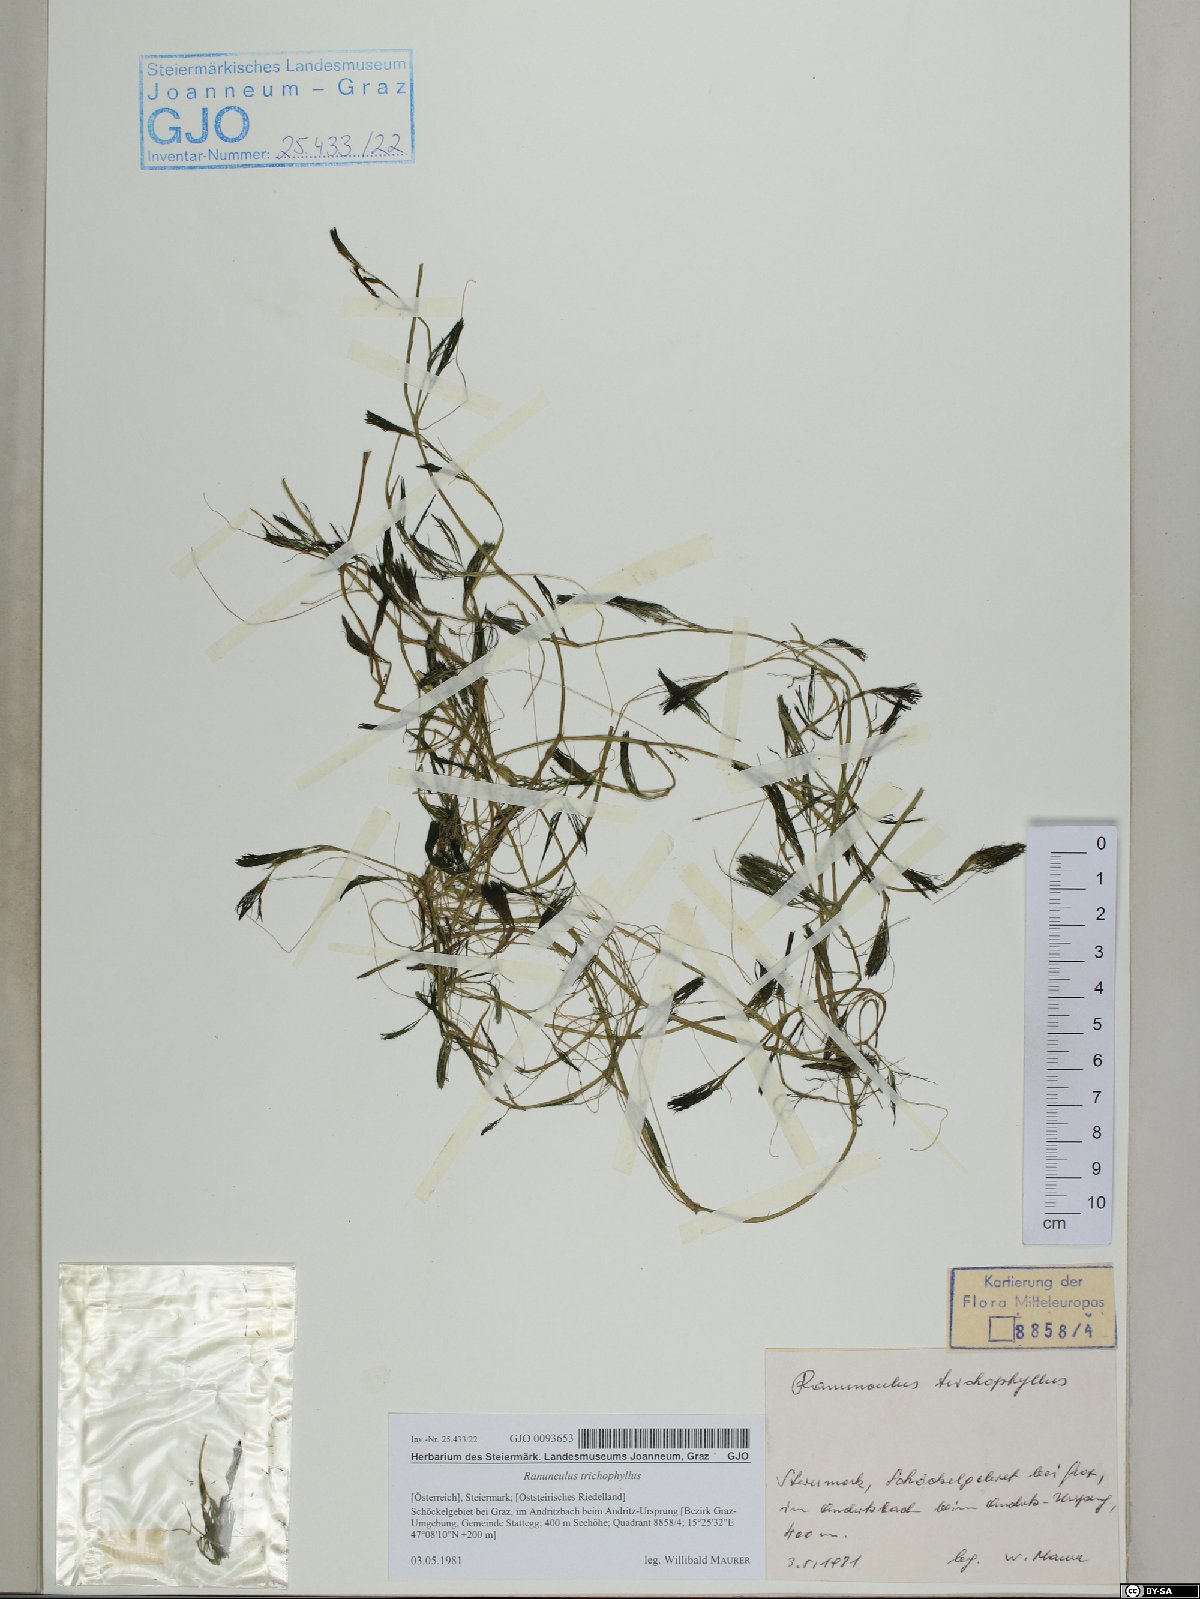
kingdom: Plantae
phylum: Tracheophyta
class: Magnoliopsida
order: Ranunculales
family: Ranunculaceae
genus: Ranunculus
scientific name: Ranunculus trichophyllus
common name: Thread-leaved water-crowfoot
